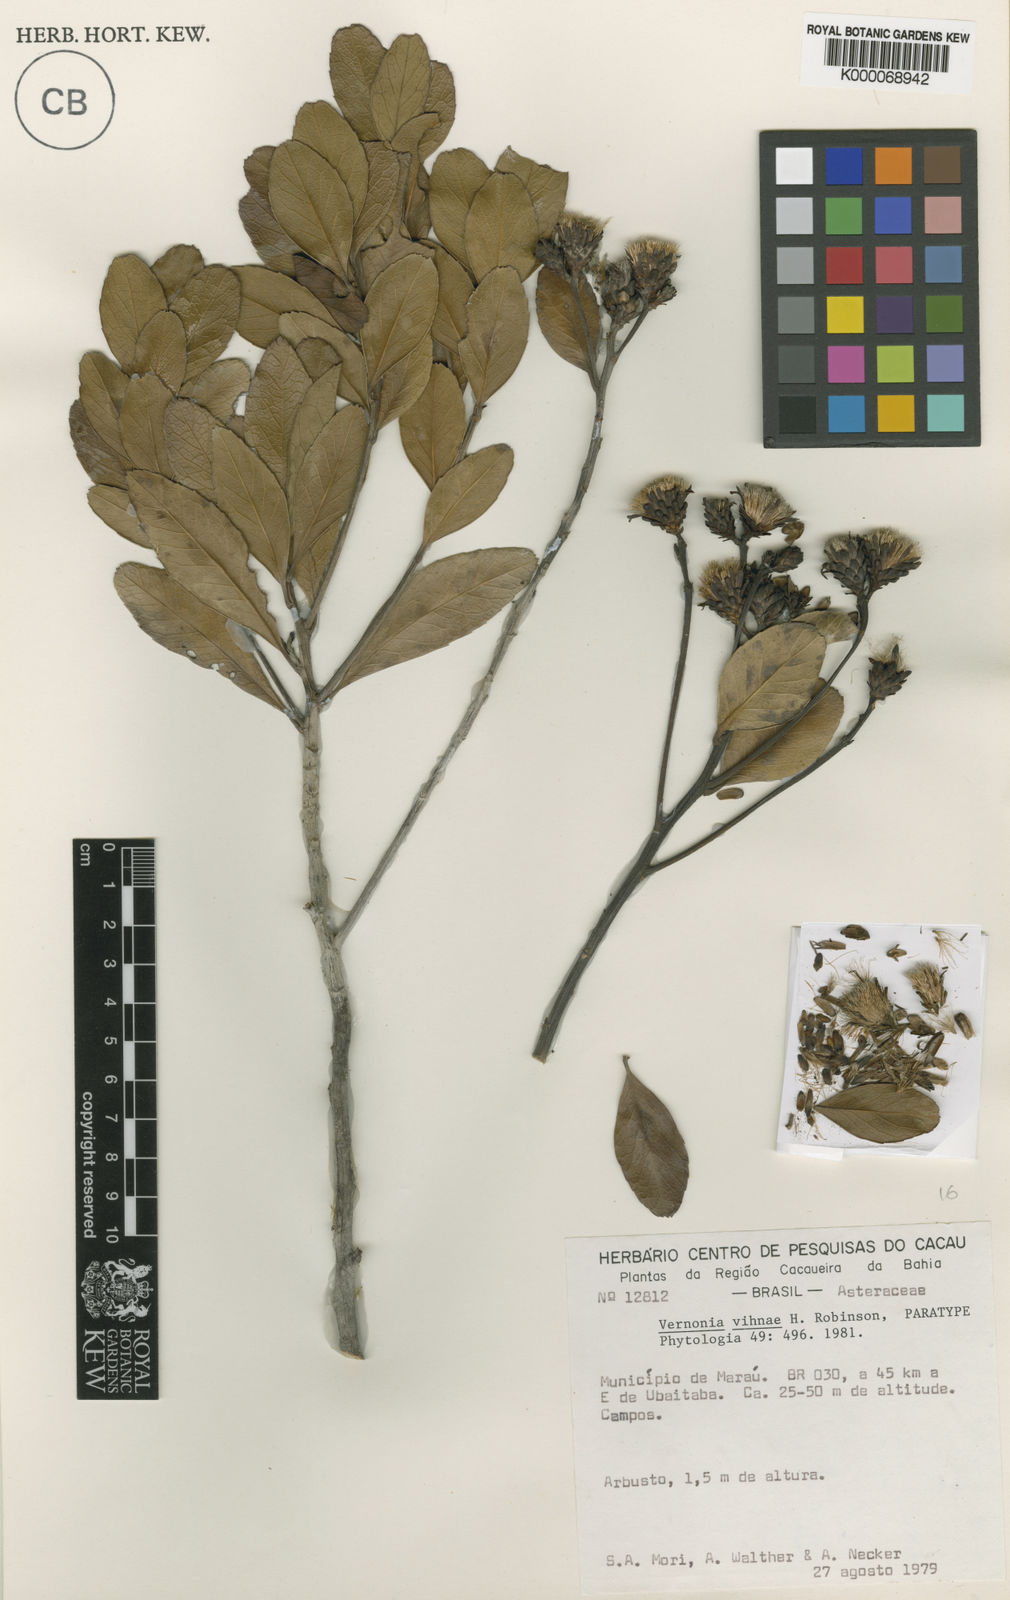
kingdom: Plantae
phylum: Tracheophyta
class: Magnoliopsida
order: Asterales
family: Asteraceae
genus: Vernonanthura
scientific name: Vernonanthura vinhae
